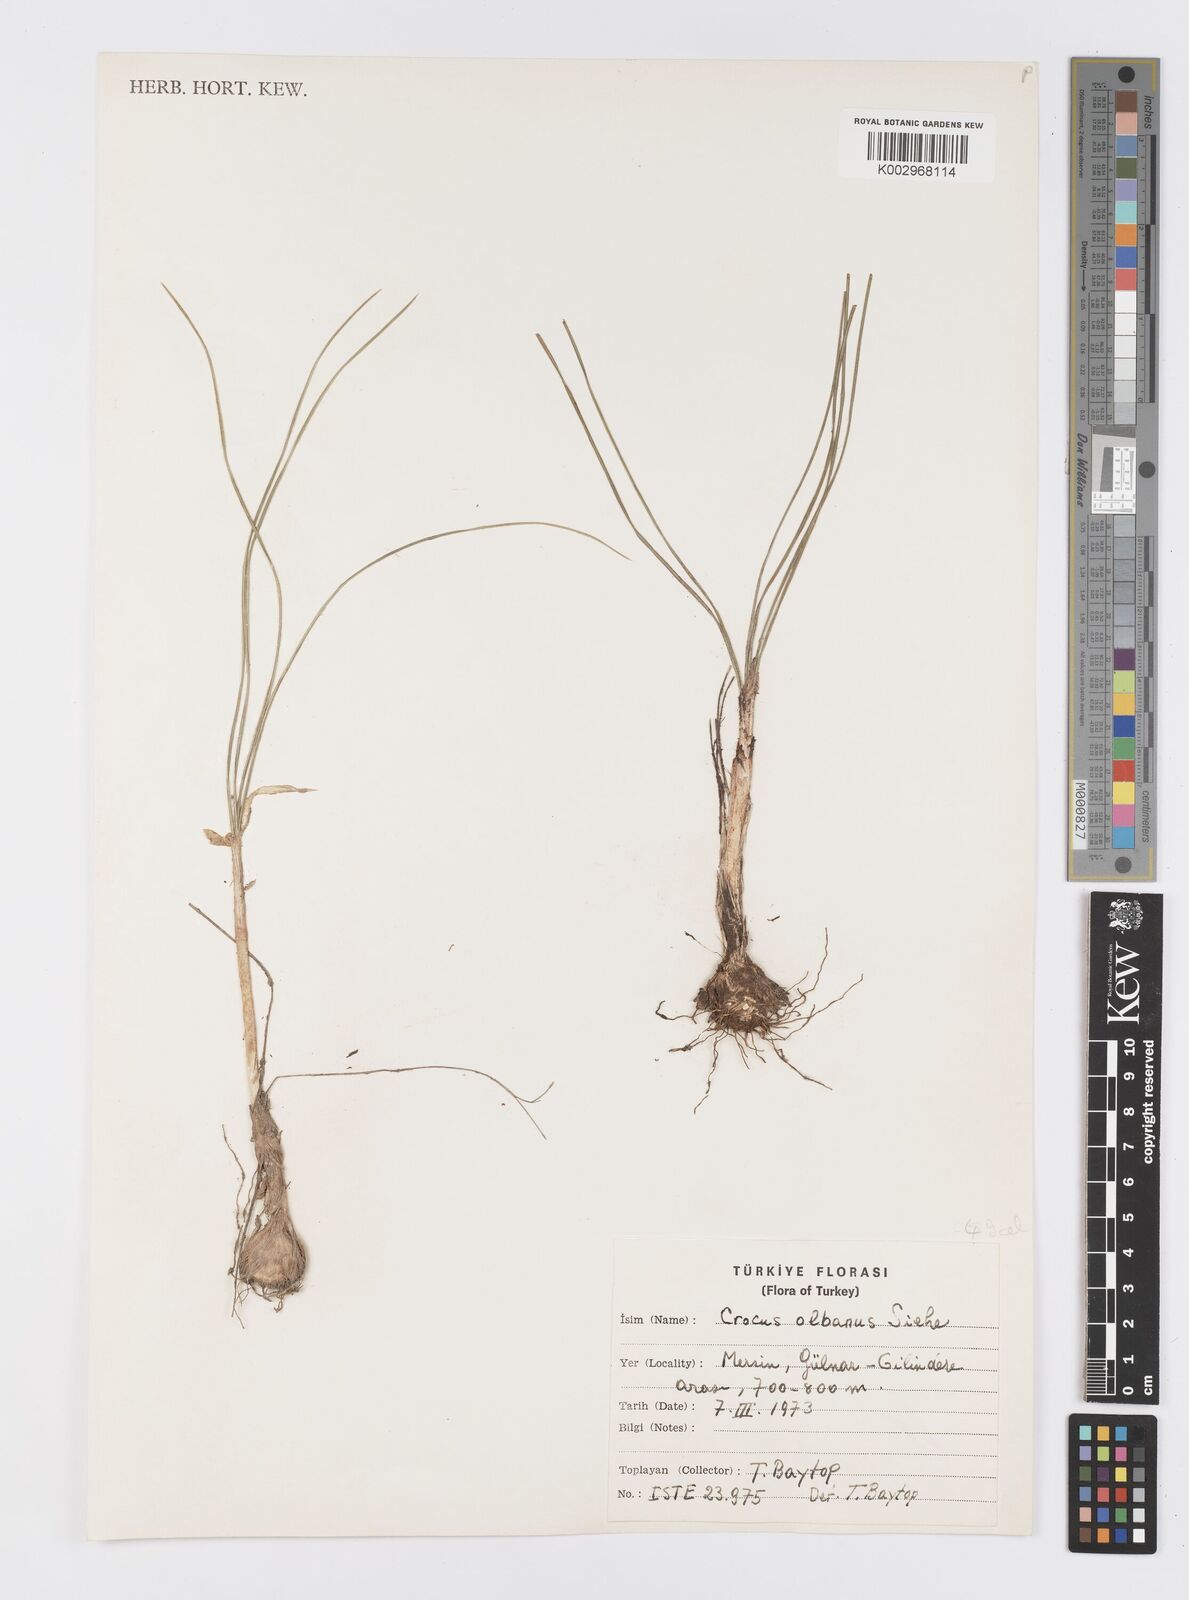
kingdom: Plantae
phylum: Tracheophyta
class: Liliopsida
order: Asparagales
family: Iridaceae
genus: Crocus
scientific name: Crocus
